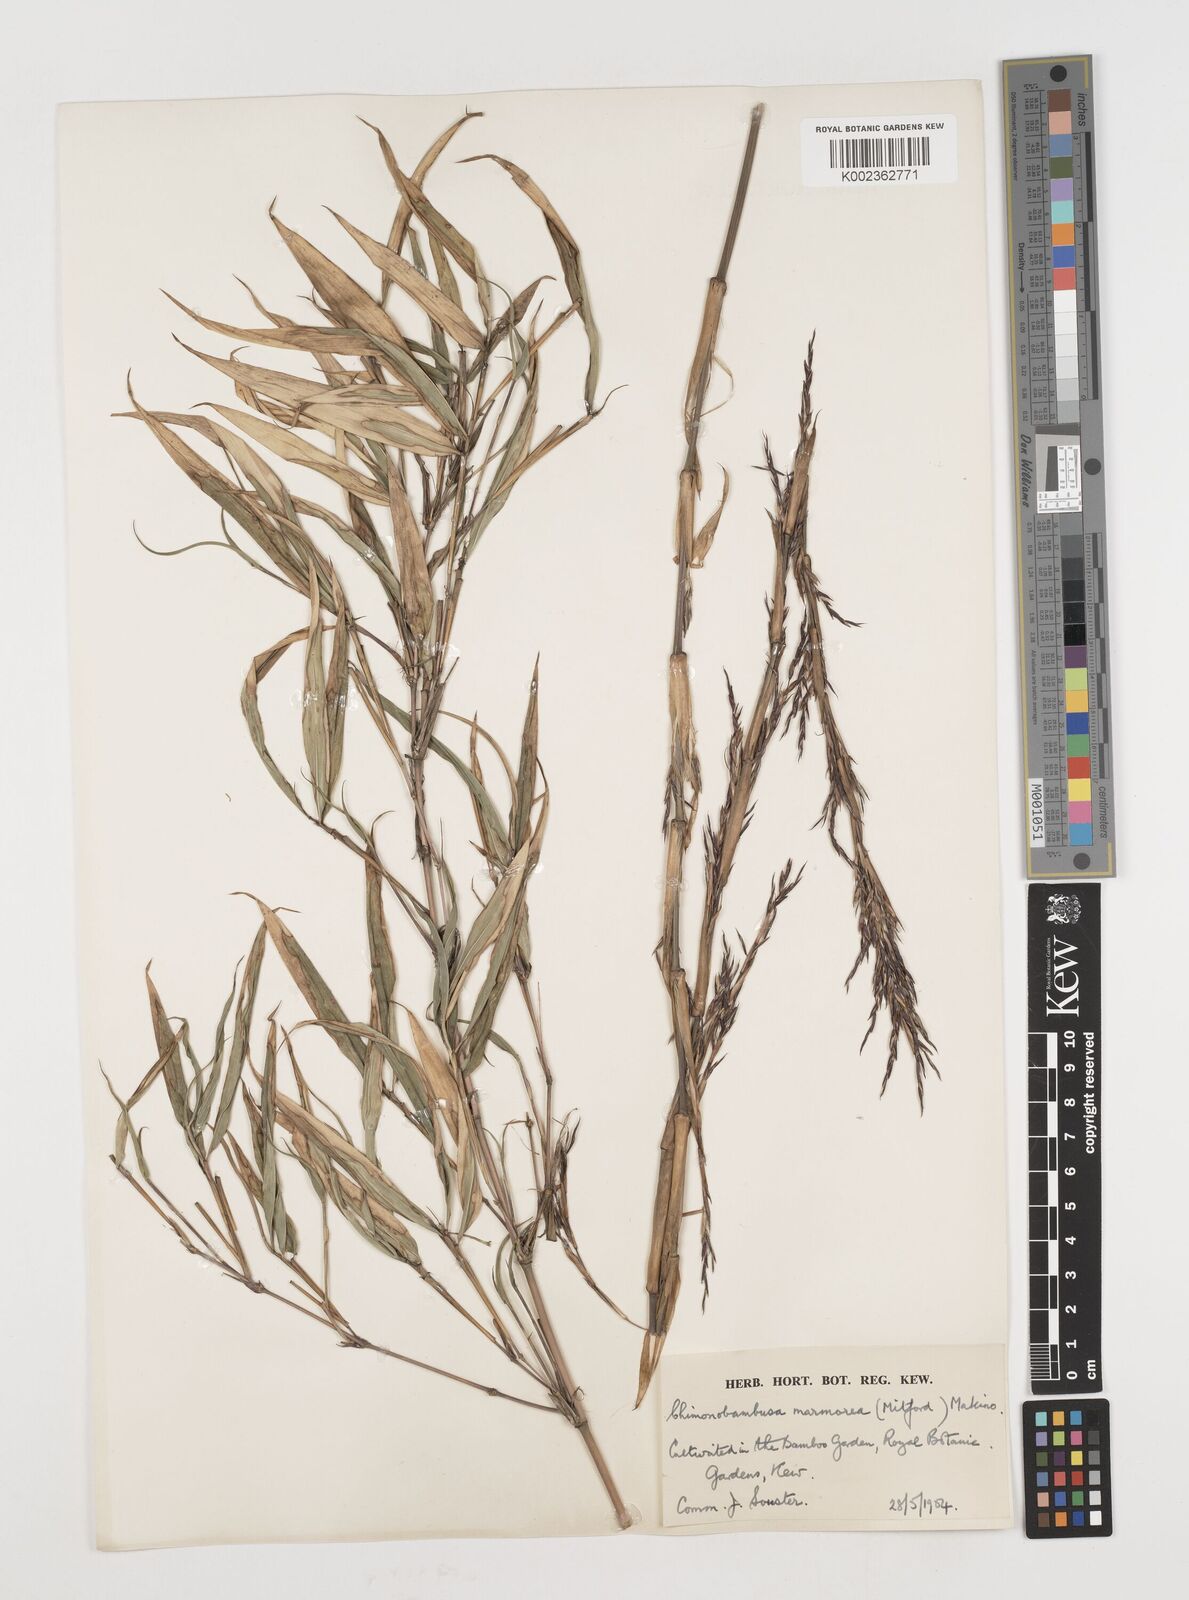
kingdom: Plantae
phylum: Tracheophyta
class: Liliopsida
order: Poales
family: Poaceae
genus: Chimonobambusa
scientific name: Chimonobambusa marmorea
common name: Marbled bamboo
